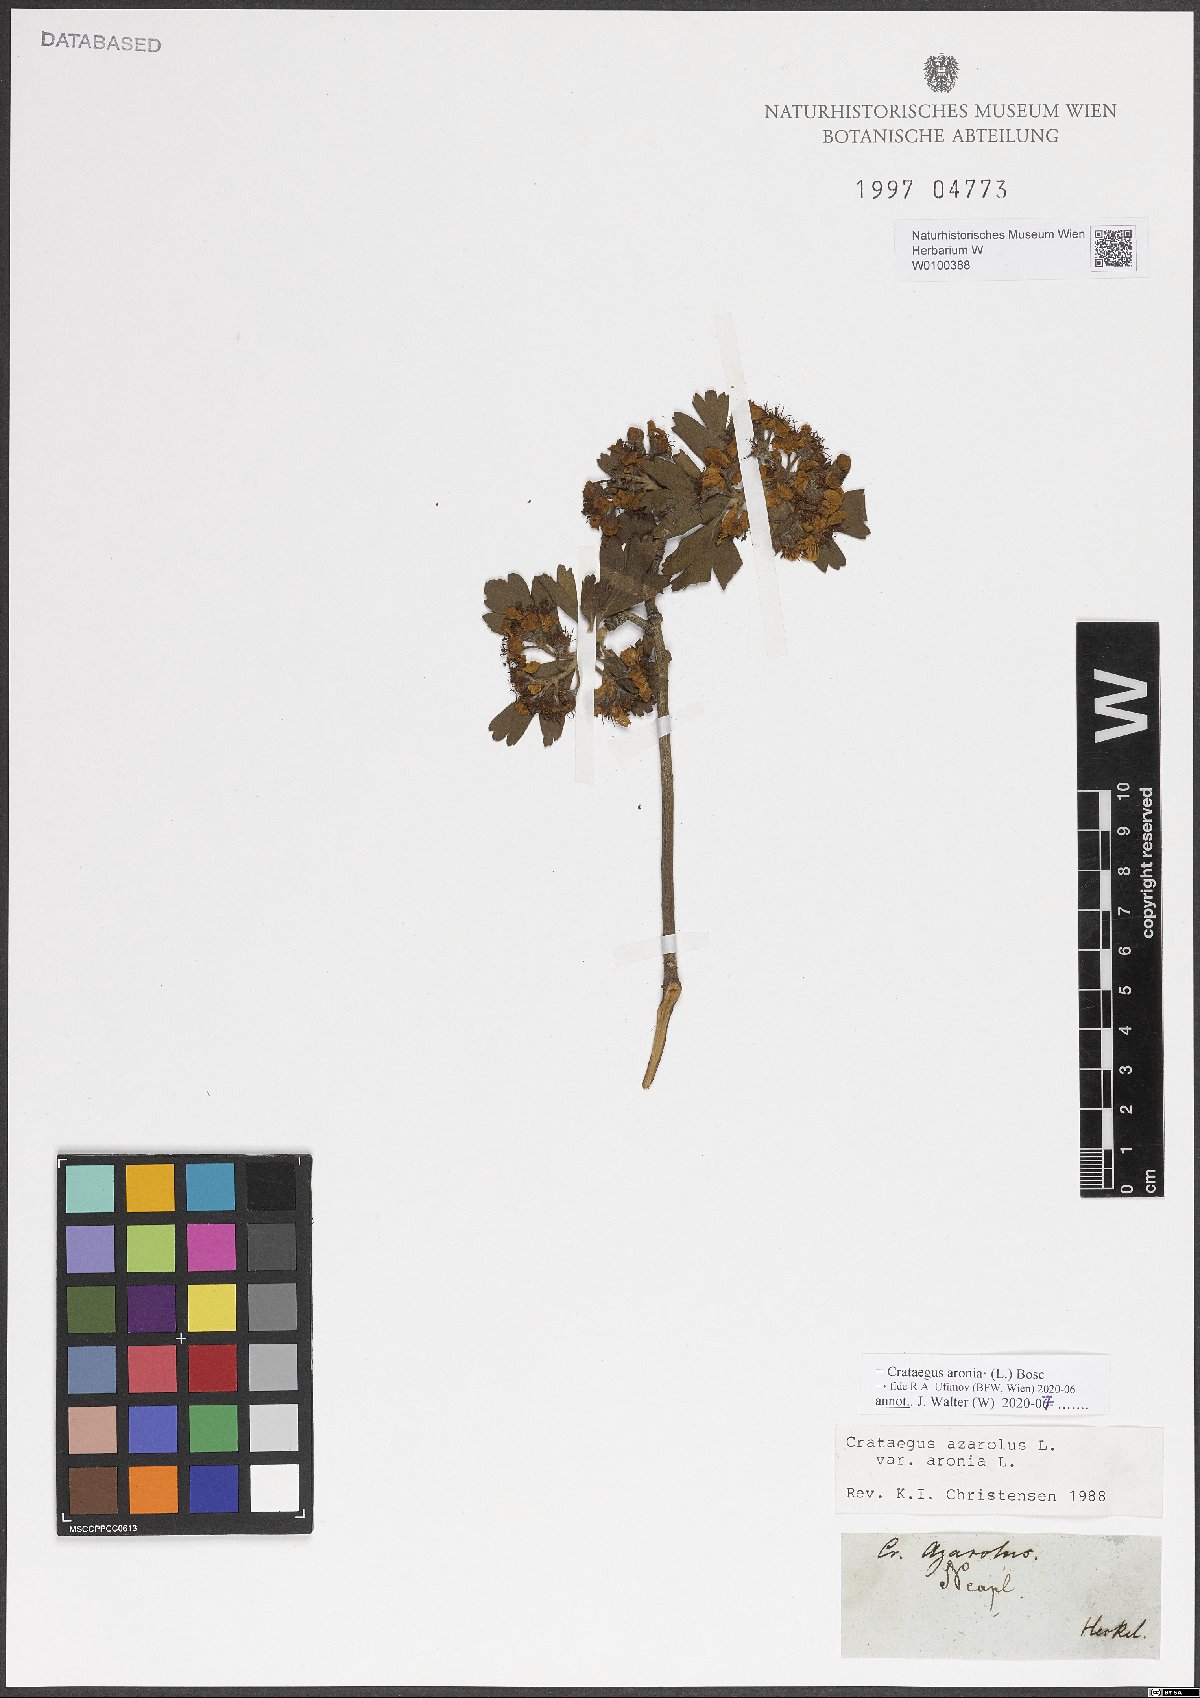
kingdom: Plantae
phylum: Tracheophyta
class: Magnoliopsida
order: Rosales
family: Rosaceae
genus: Crataegus
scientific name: Crataegus azarolus
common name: Azarole
